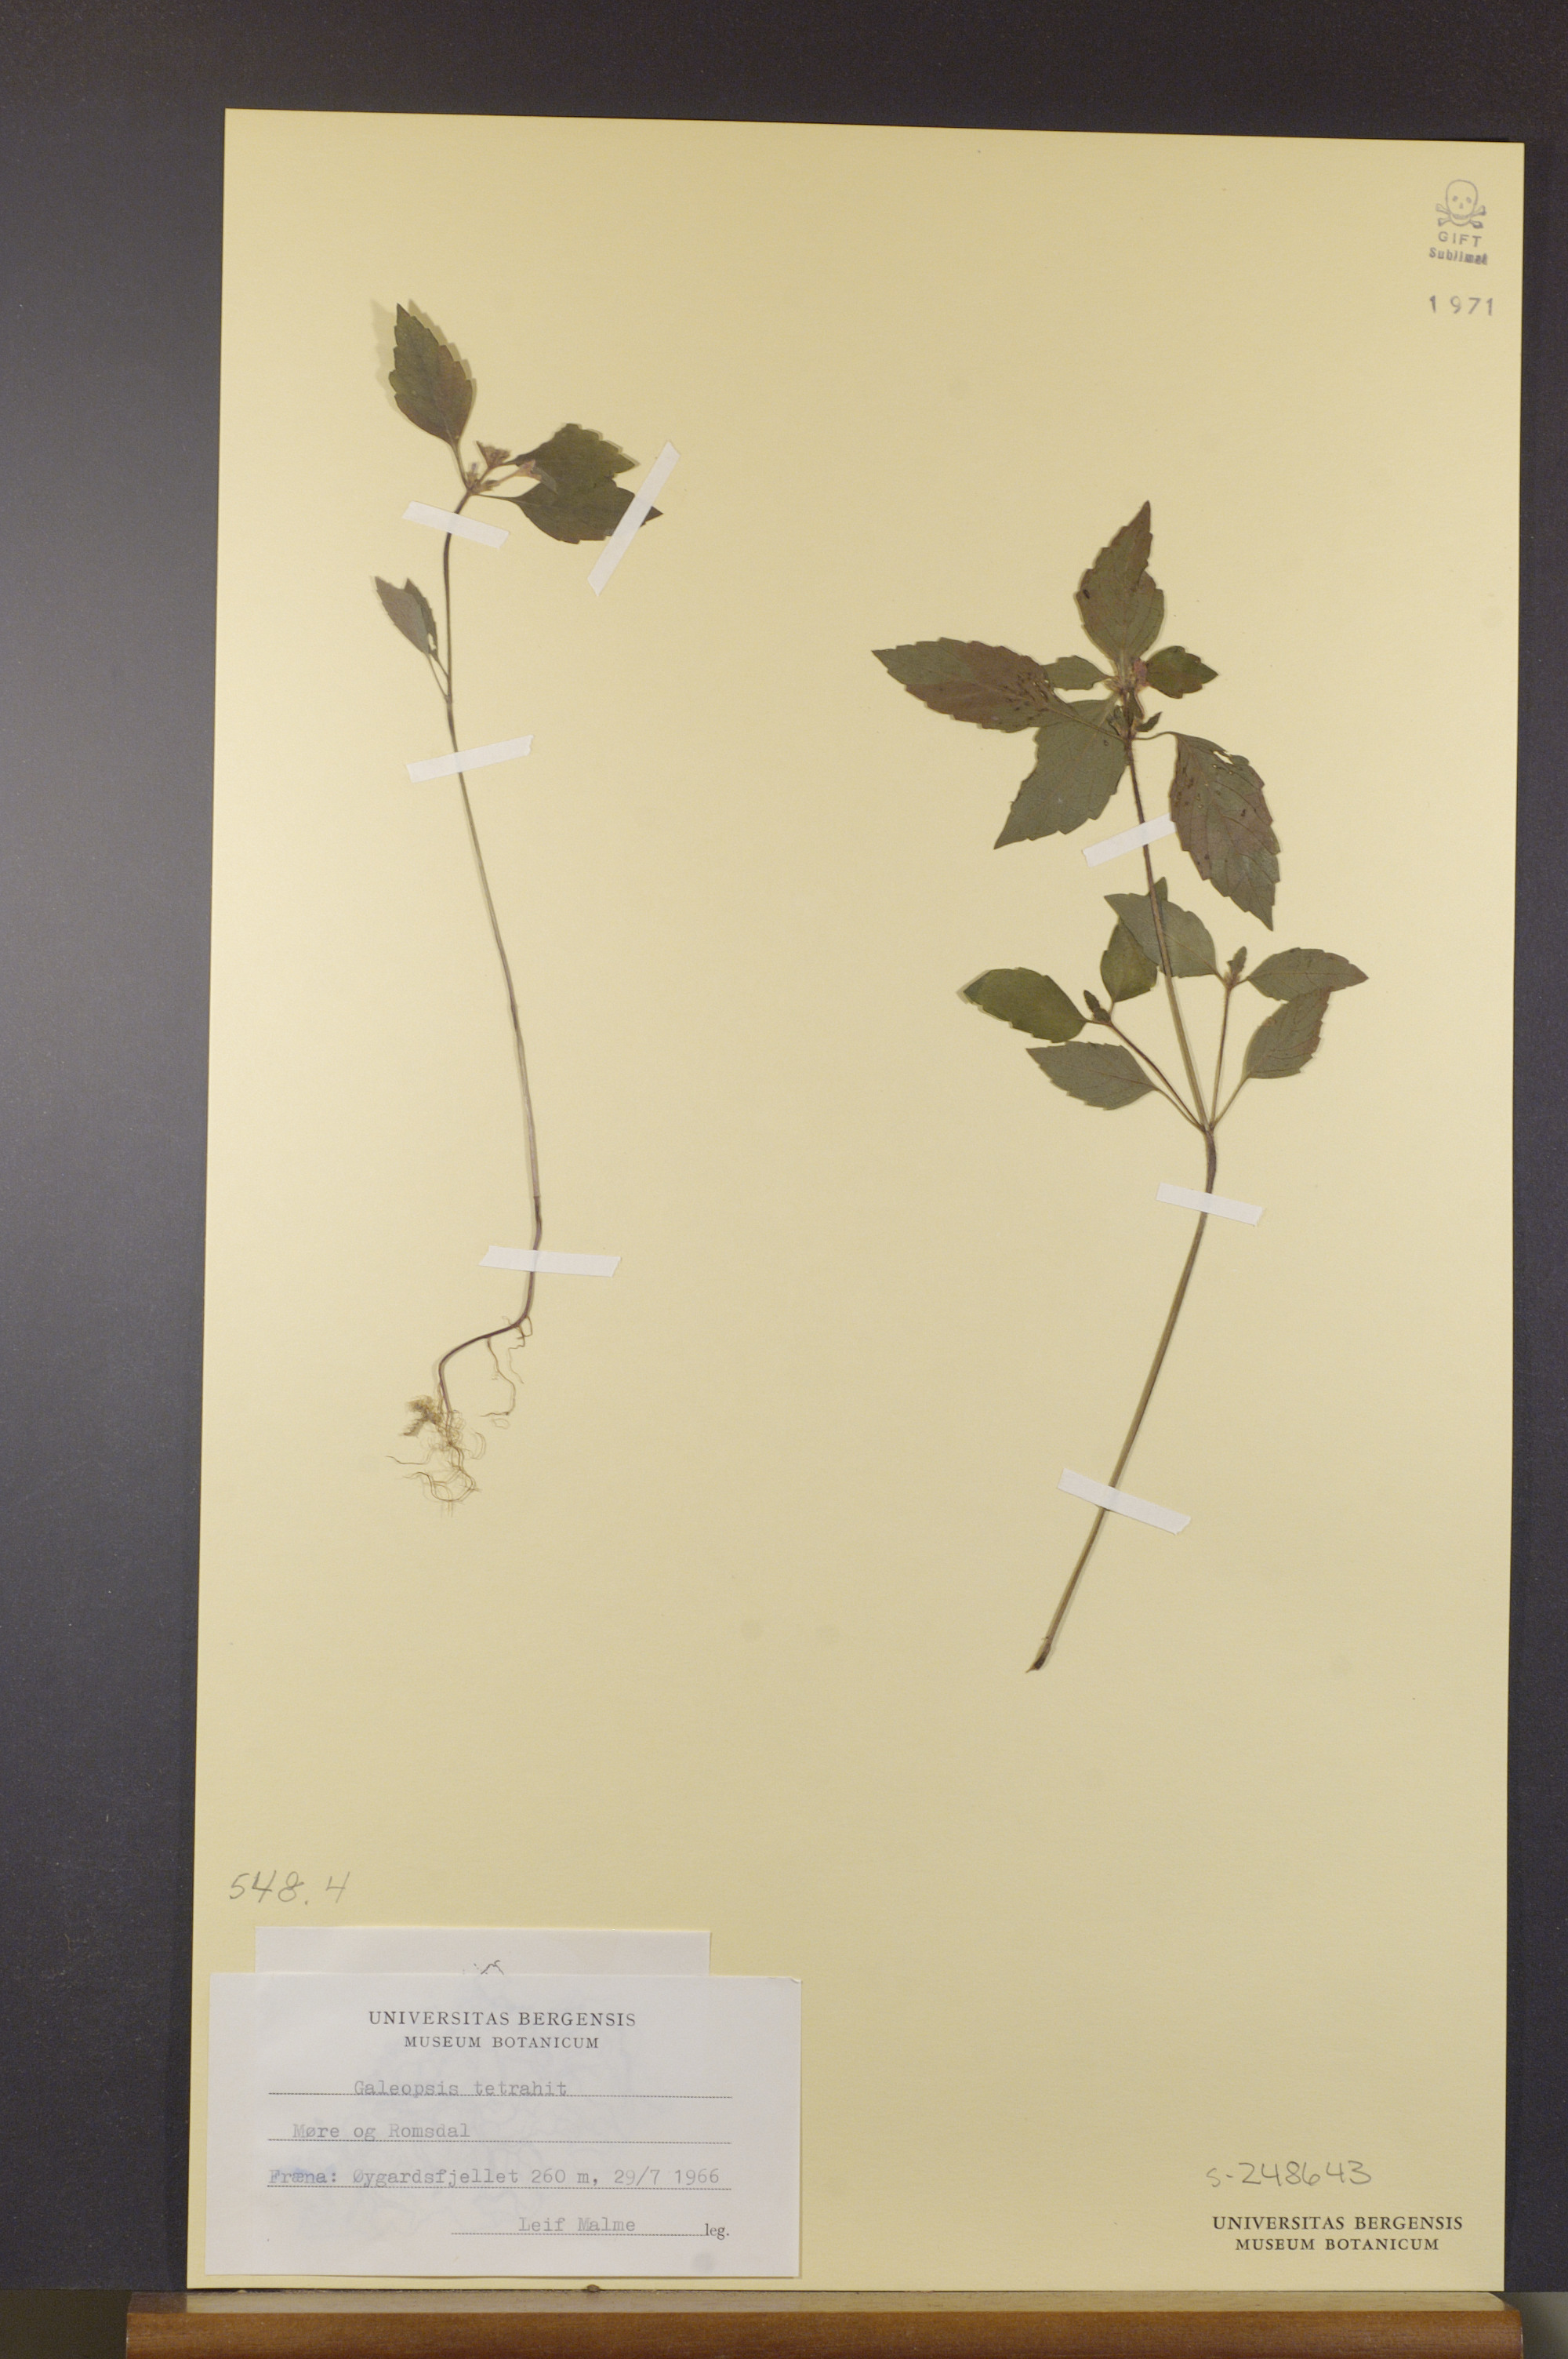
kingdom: Plantae
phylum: Tracheophyta
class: Magnoliopsida
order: Lamiales
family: Lamiaceae
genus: Galeopsis
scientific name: Galeopsis tetrahit
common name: Common hemp-nettle
